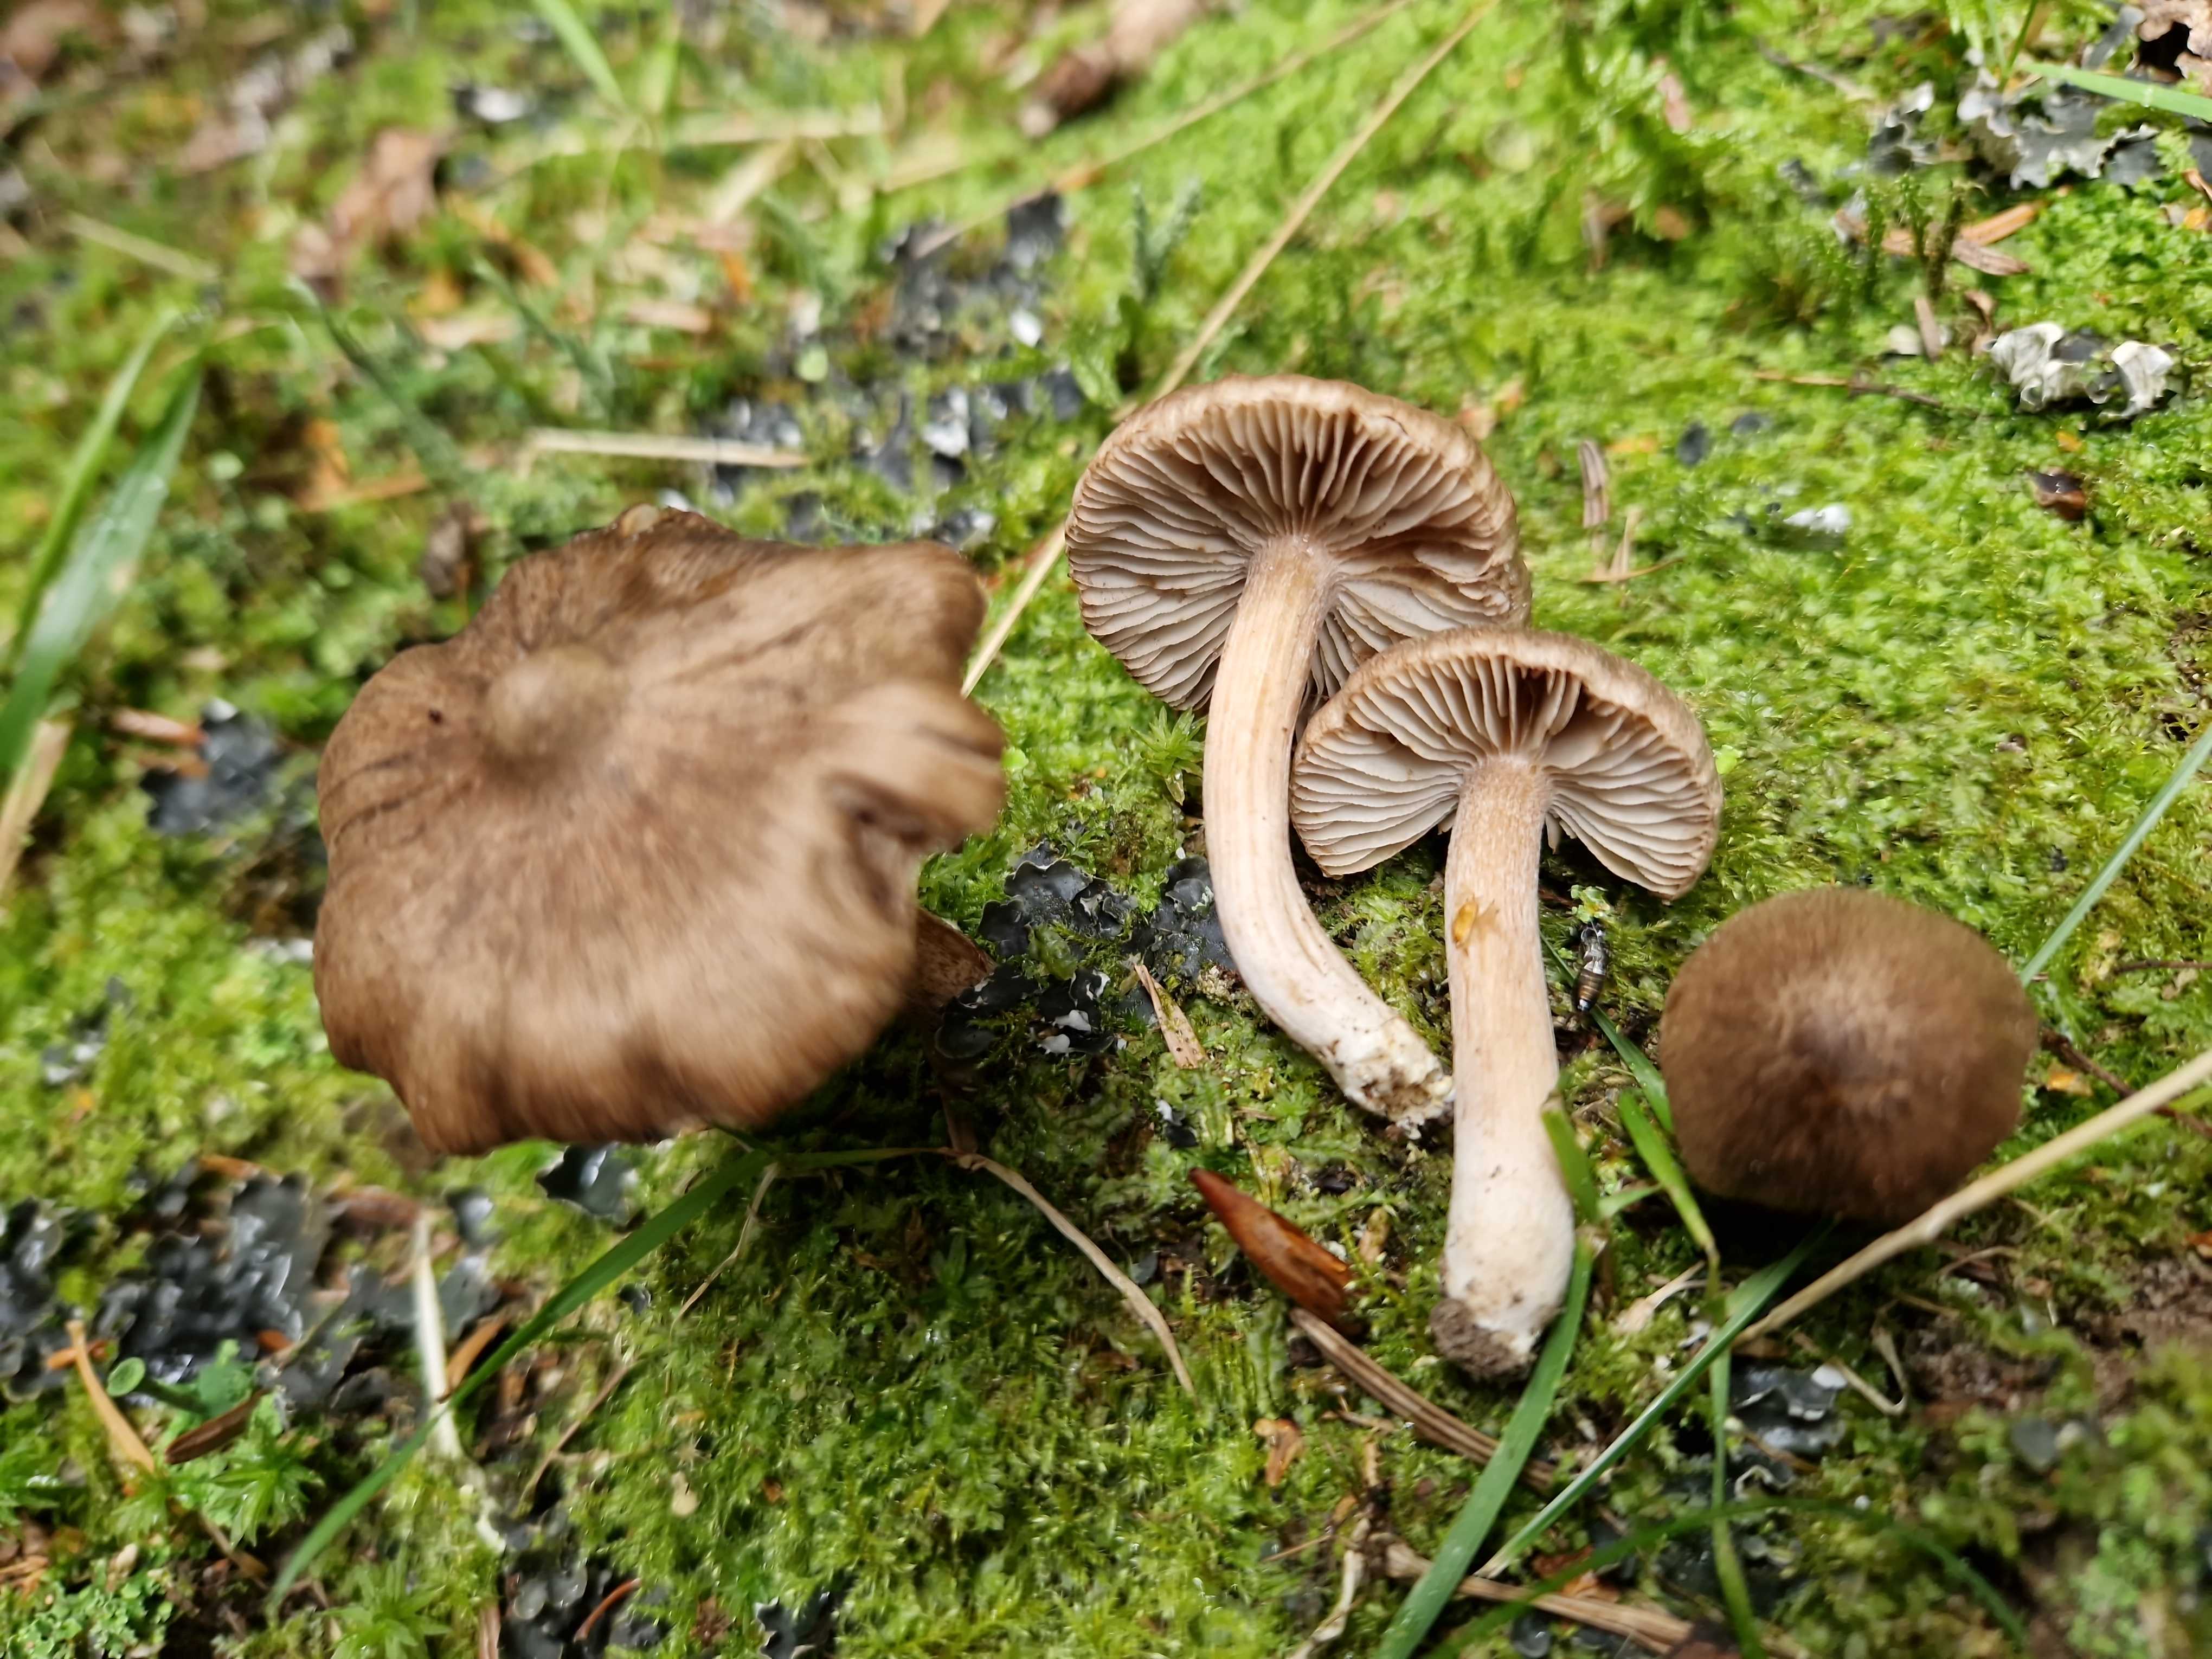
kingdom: Fungi
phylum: Basidiomycota
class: Agaricomycetes
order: Agaricales
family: Inocybaceae
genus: Inocybe
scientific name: Inocybe giacomi
